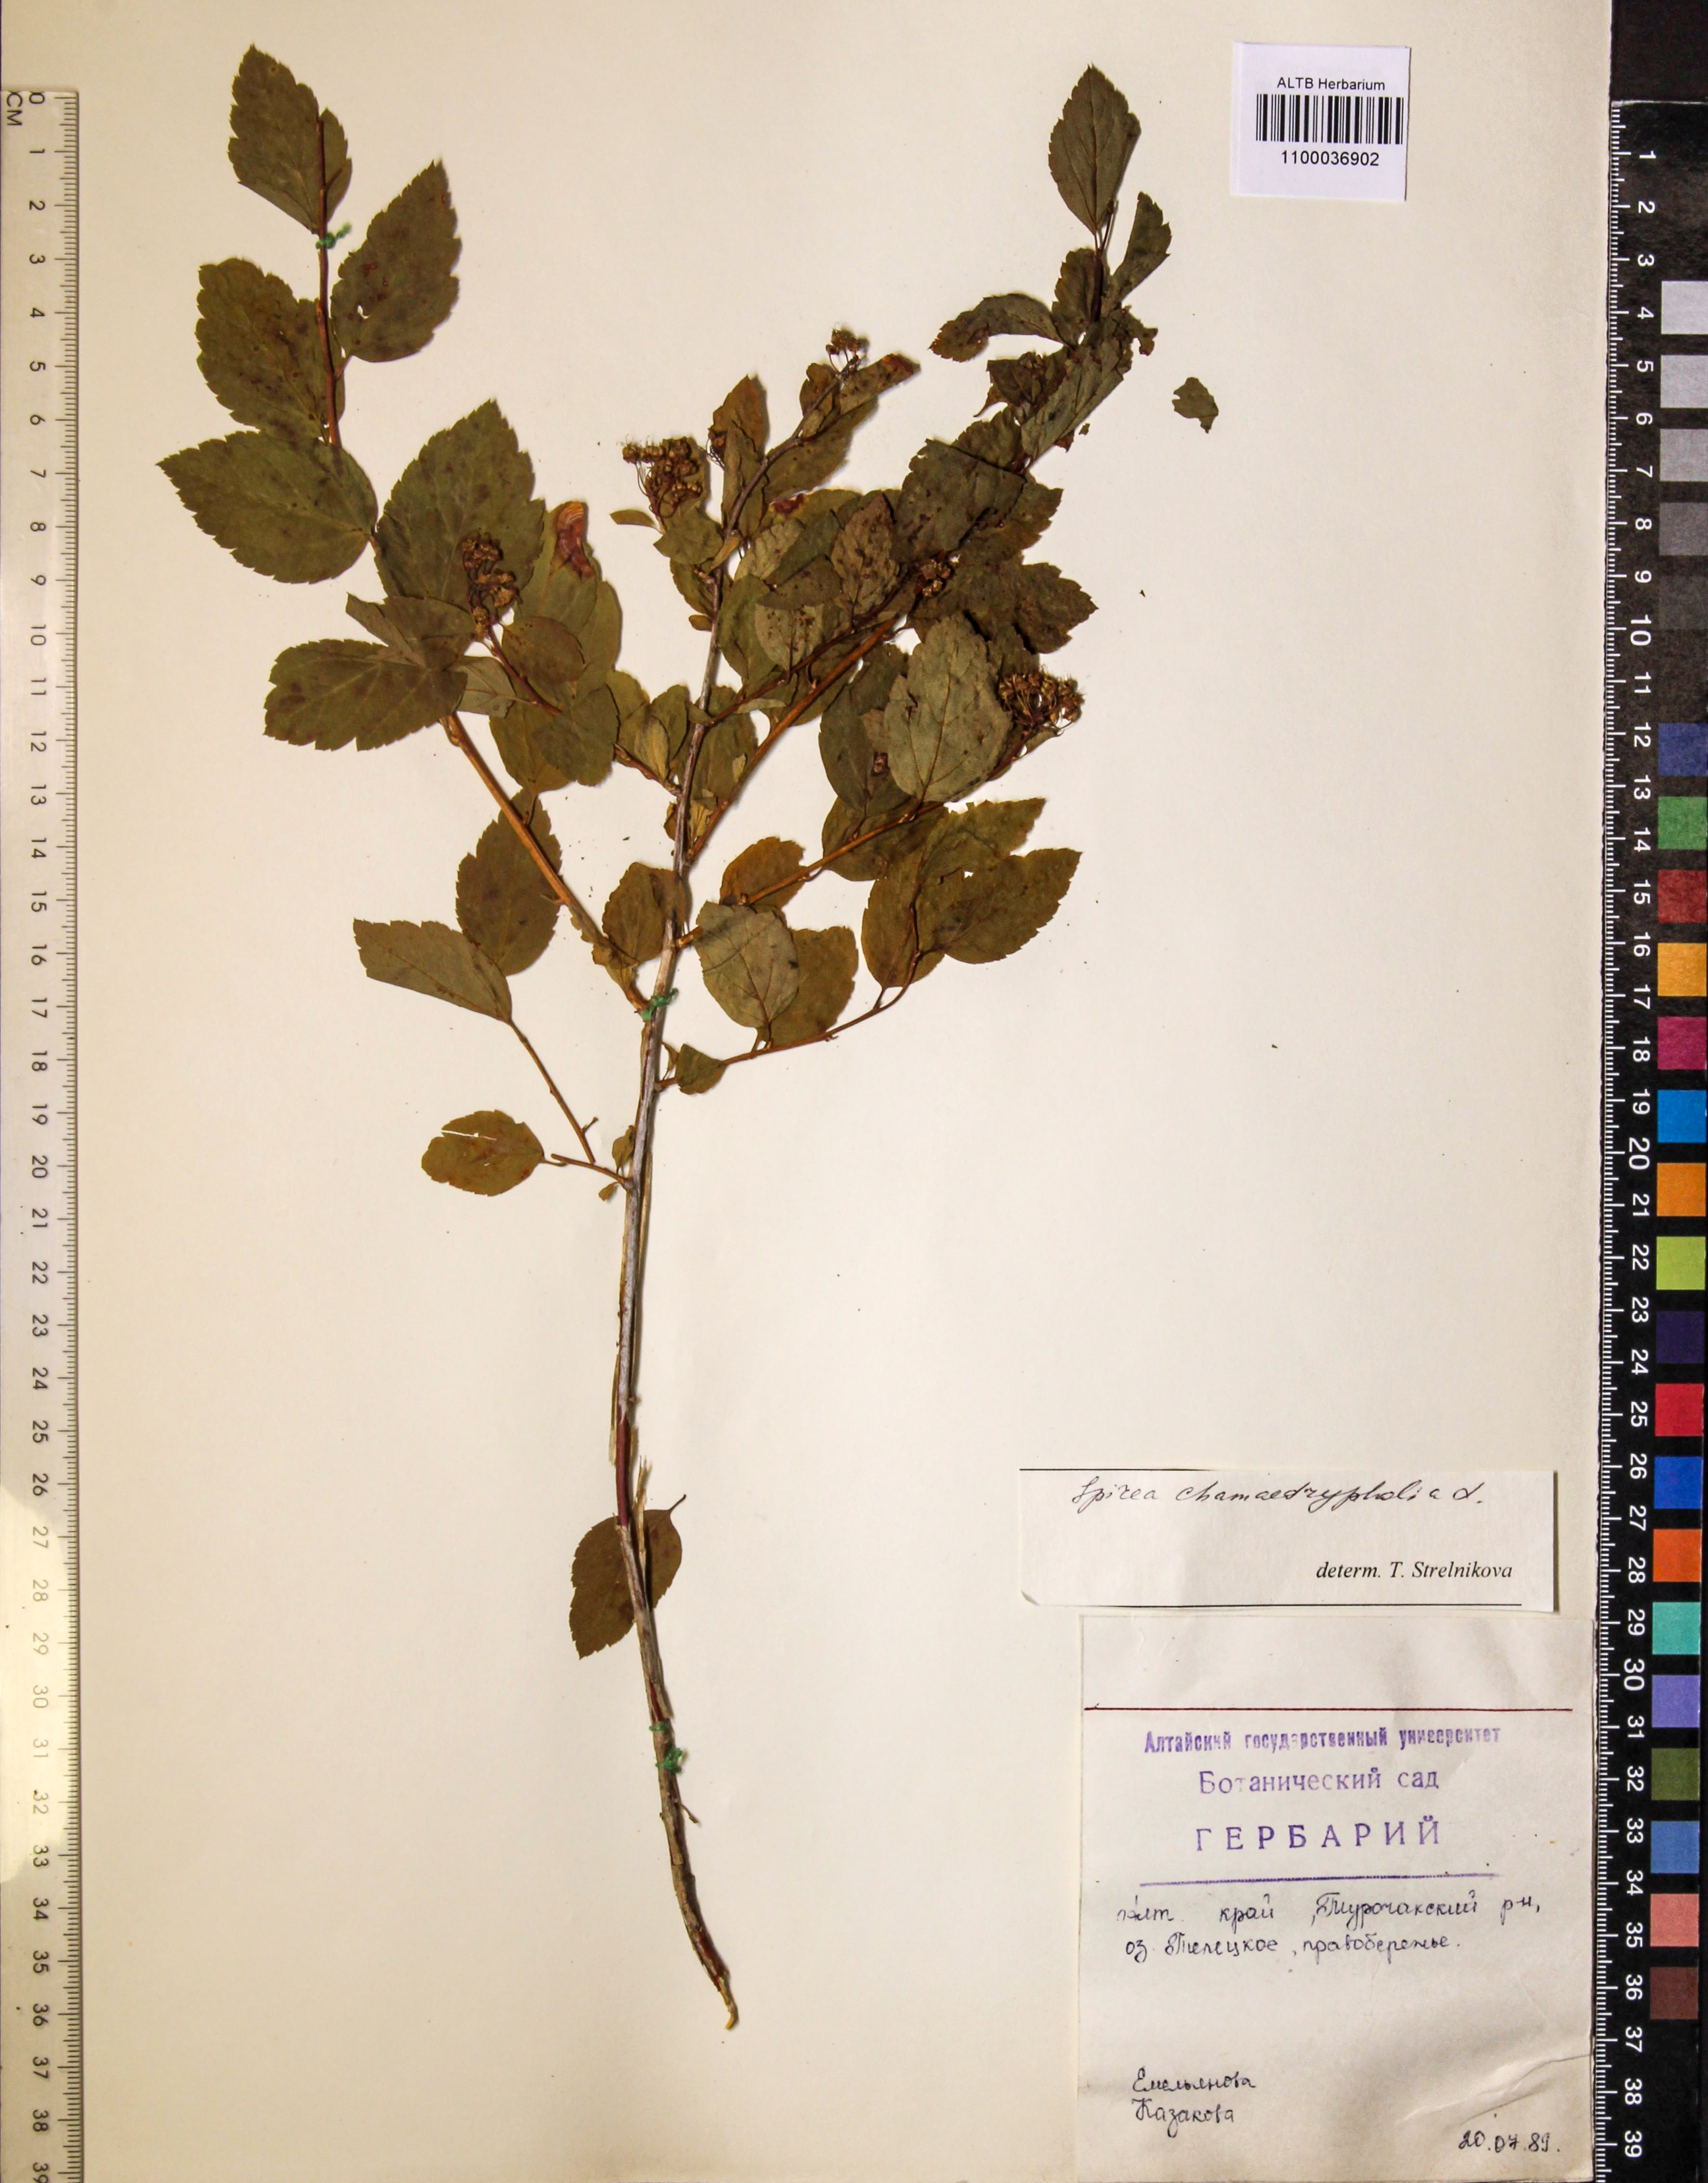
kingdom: Plantae
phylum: Tracheophyta
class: Magnoliopsida
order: Rosales
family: Rosaceae
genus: Spiraea
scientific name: Spiraea chamaedryfolia
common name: Elm-leaved spiraea
